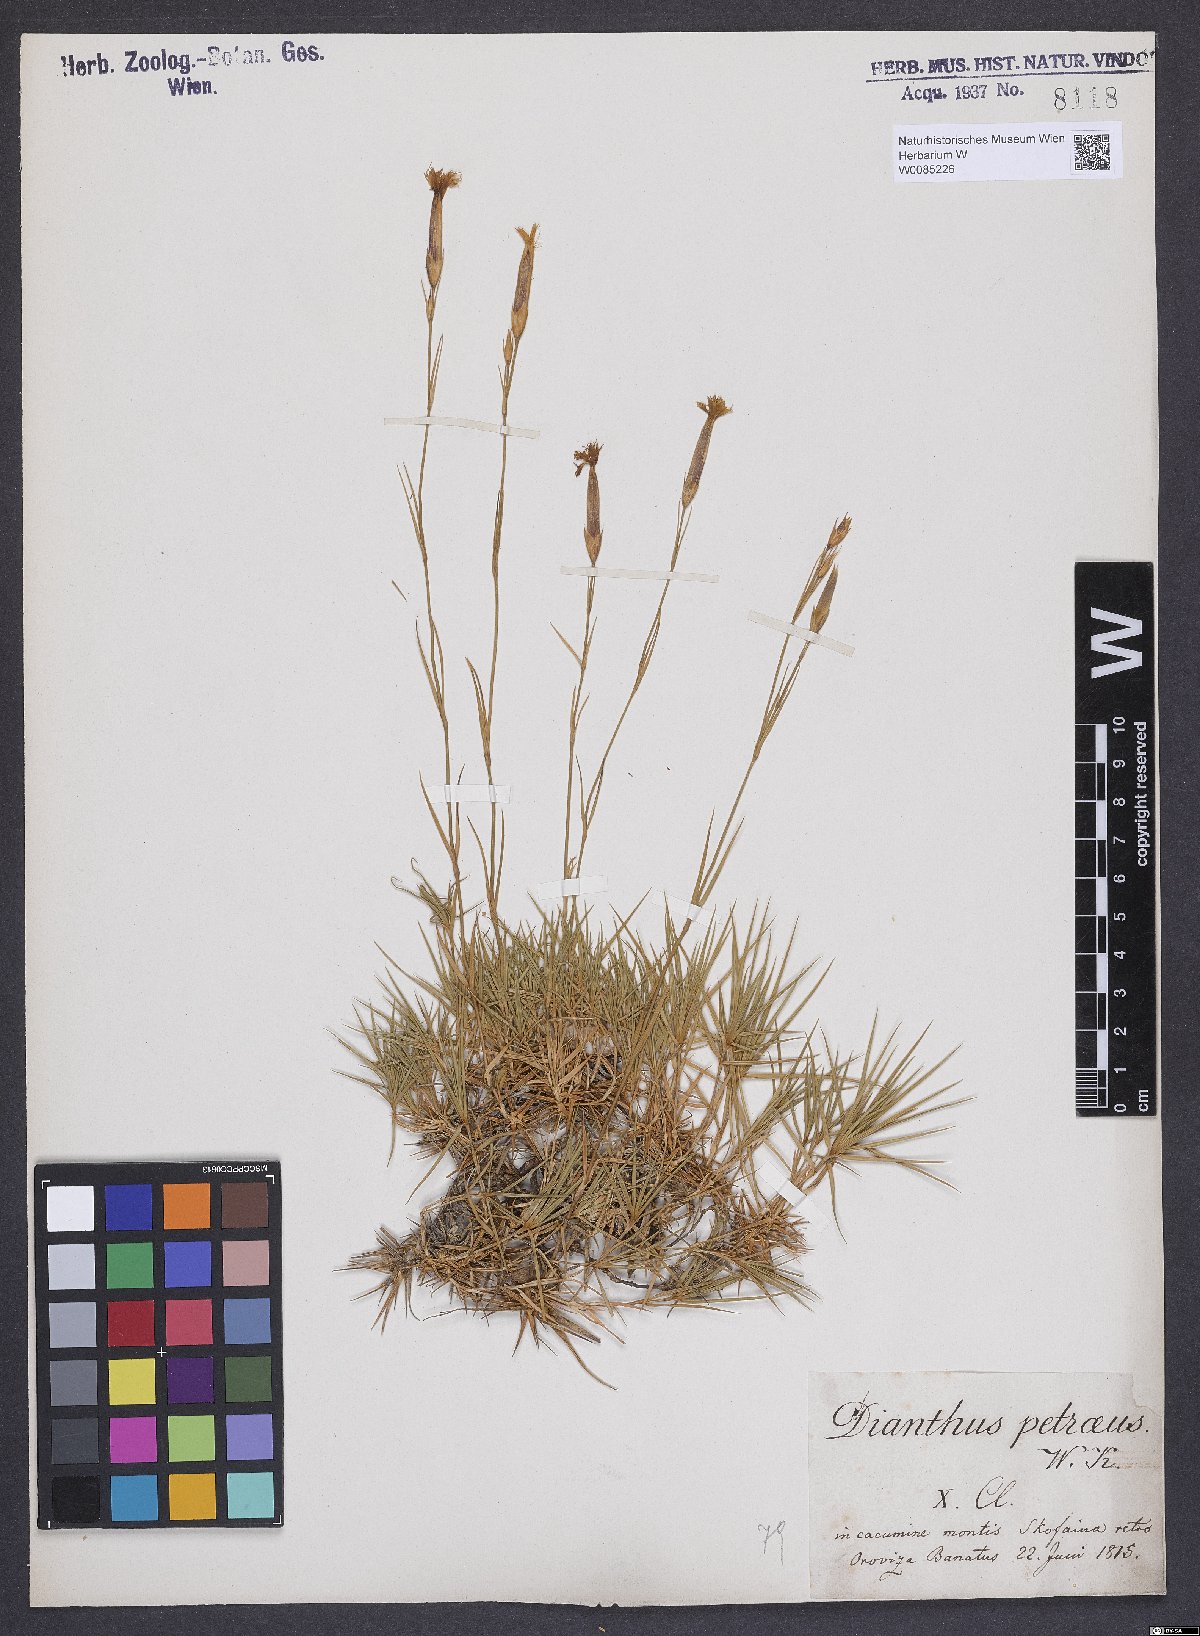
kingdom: Plantae
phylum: Tracheophyta
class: Magnoliopsida
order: Caryophyllales
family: Caryophyllaceae
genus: Dianthus
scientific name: Dianthus petraeus
